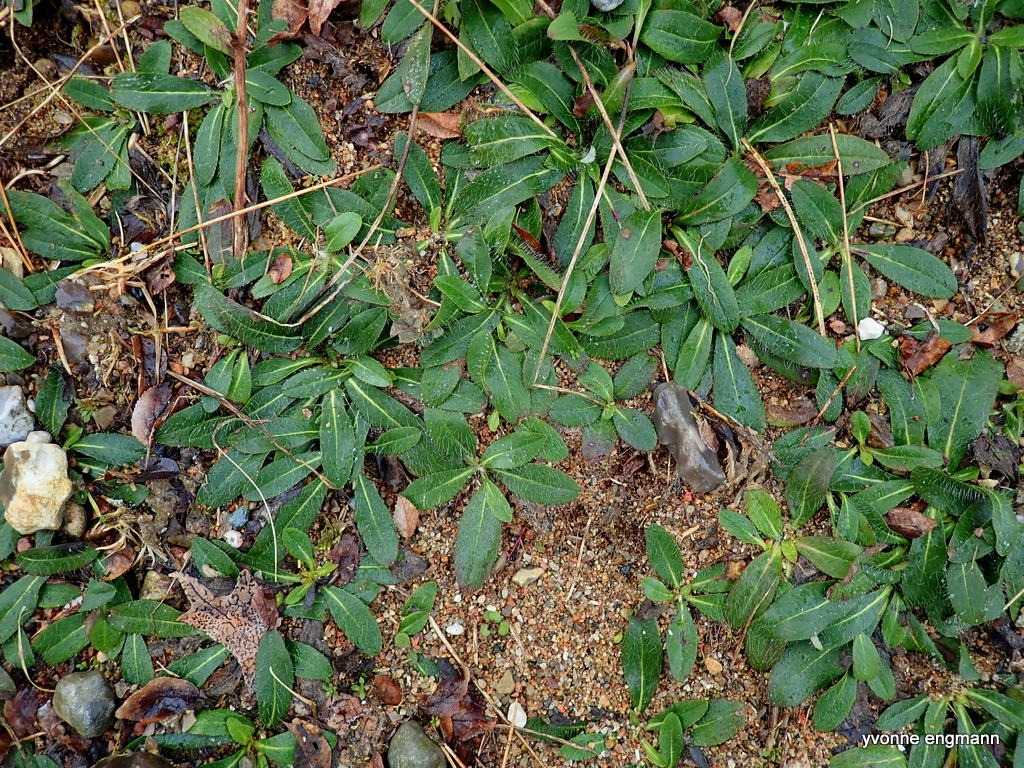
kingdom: Plantae
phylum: Tracheophyta
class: Magnoliopsida
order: Asterales
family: Asteraceae
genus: Pilosella
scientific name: Pilosella officinarum
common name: Håret høgeurt
